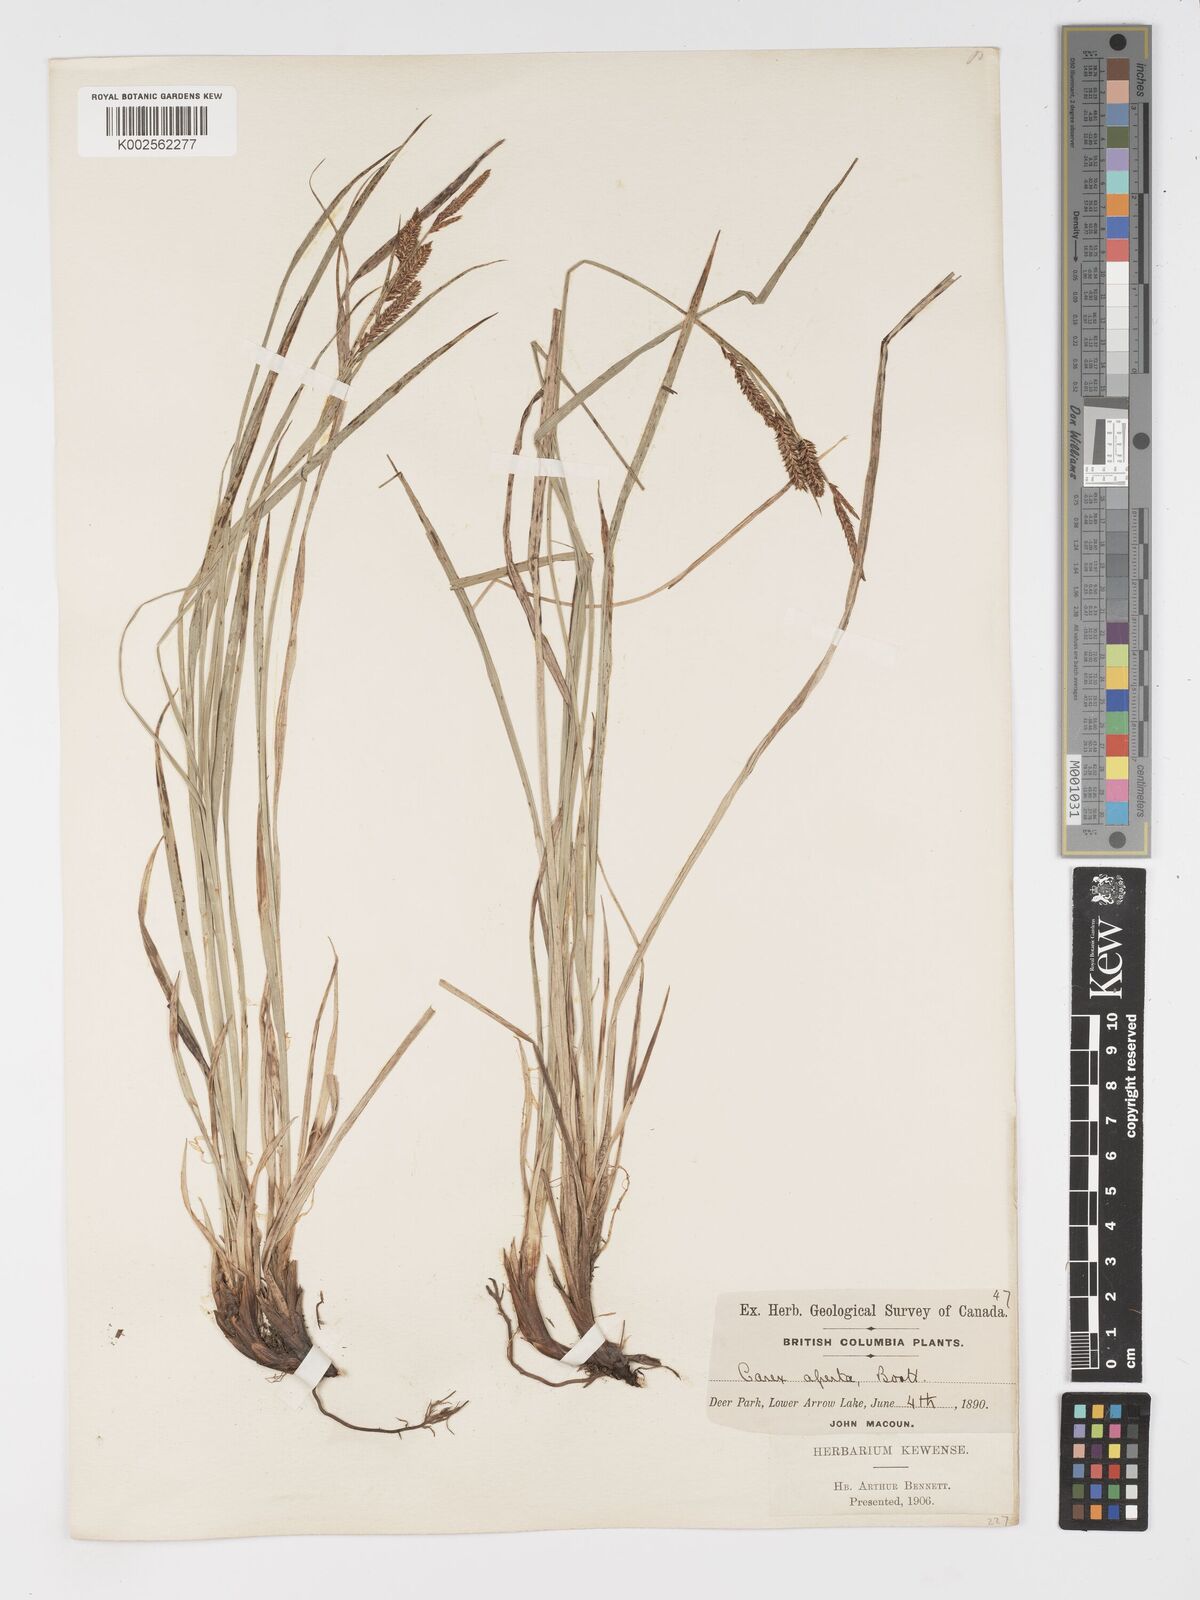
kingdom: Plantae
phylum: Tracheophyta
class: Liliopsida
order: Poales
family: Cyperaceae
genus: Carex
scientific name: Carex aperta
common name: Columbia sedge
